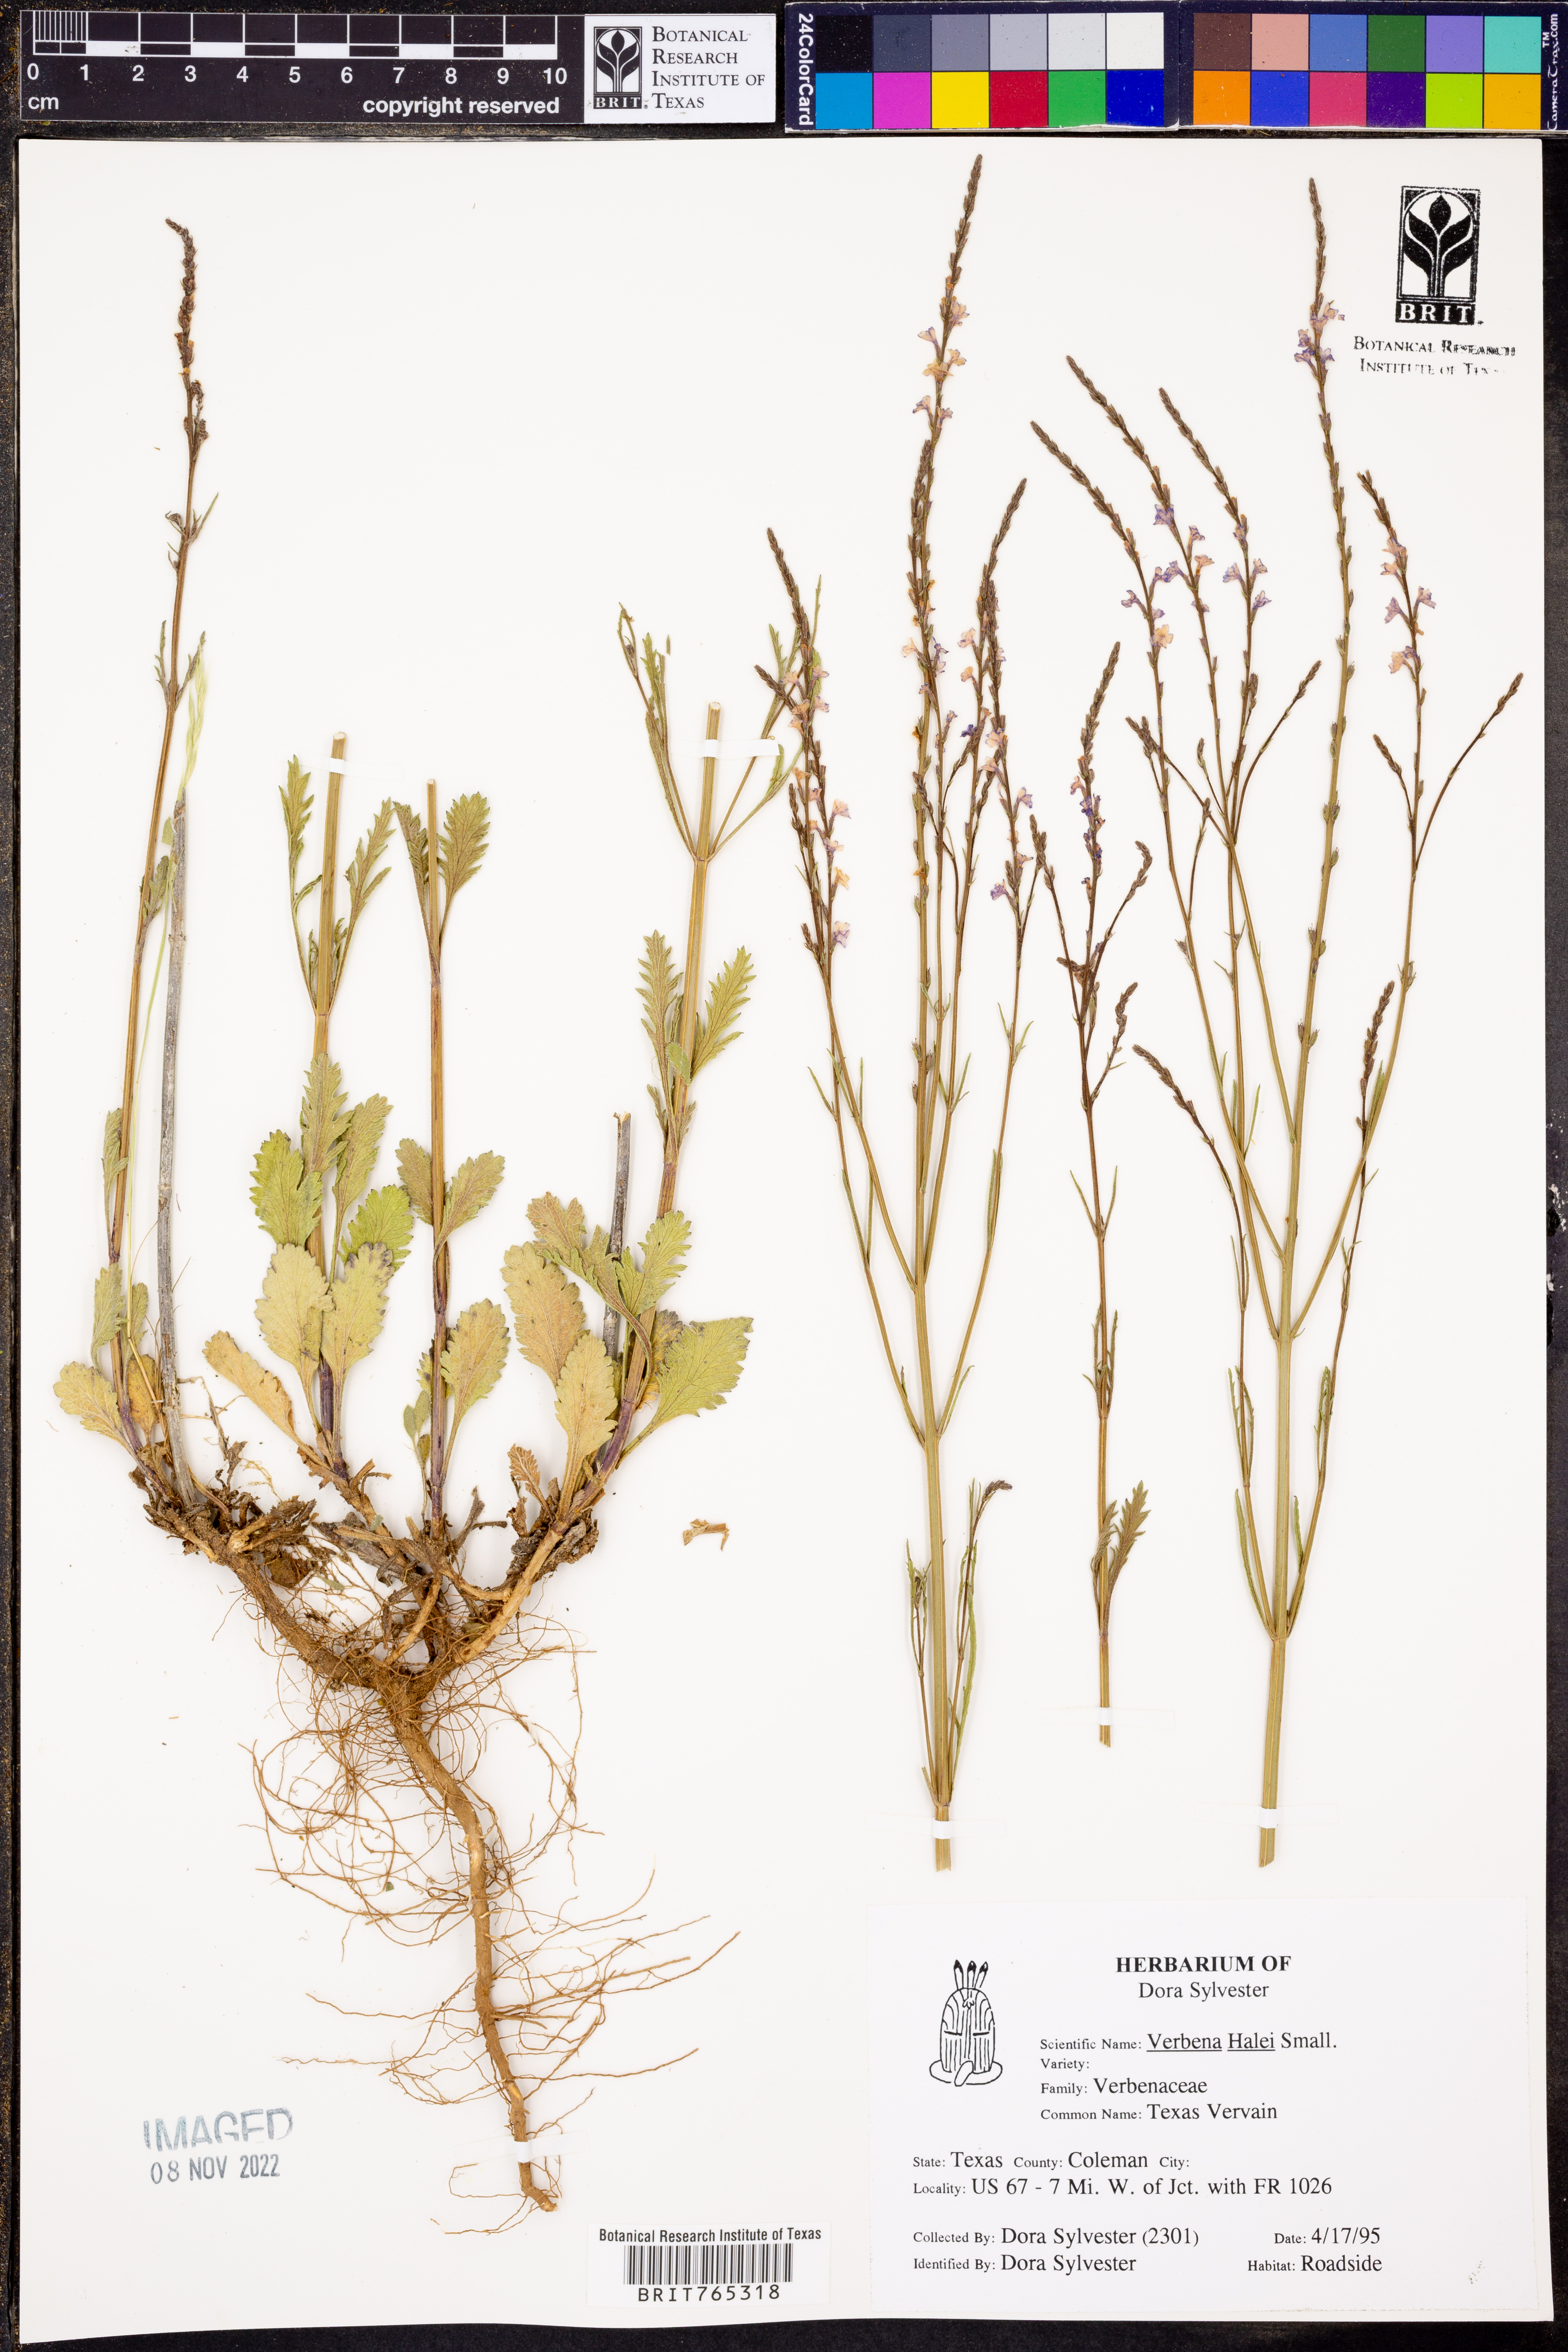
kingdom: Plantae
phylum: Tracheophyta
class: Magnoliopsida
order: Lamiales
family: Verbenaceae
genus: Verbena
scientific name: Verbena halei
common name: Texas vervain
